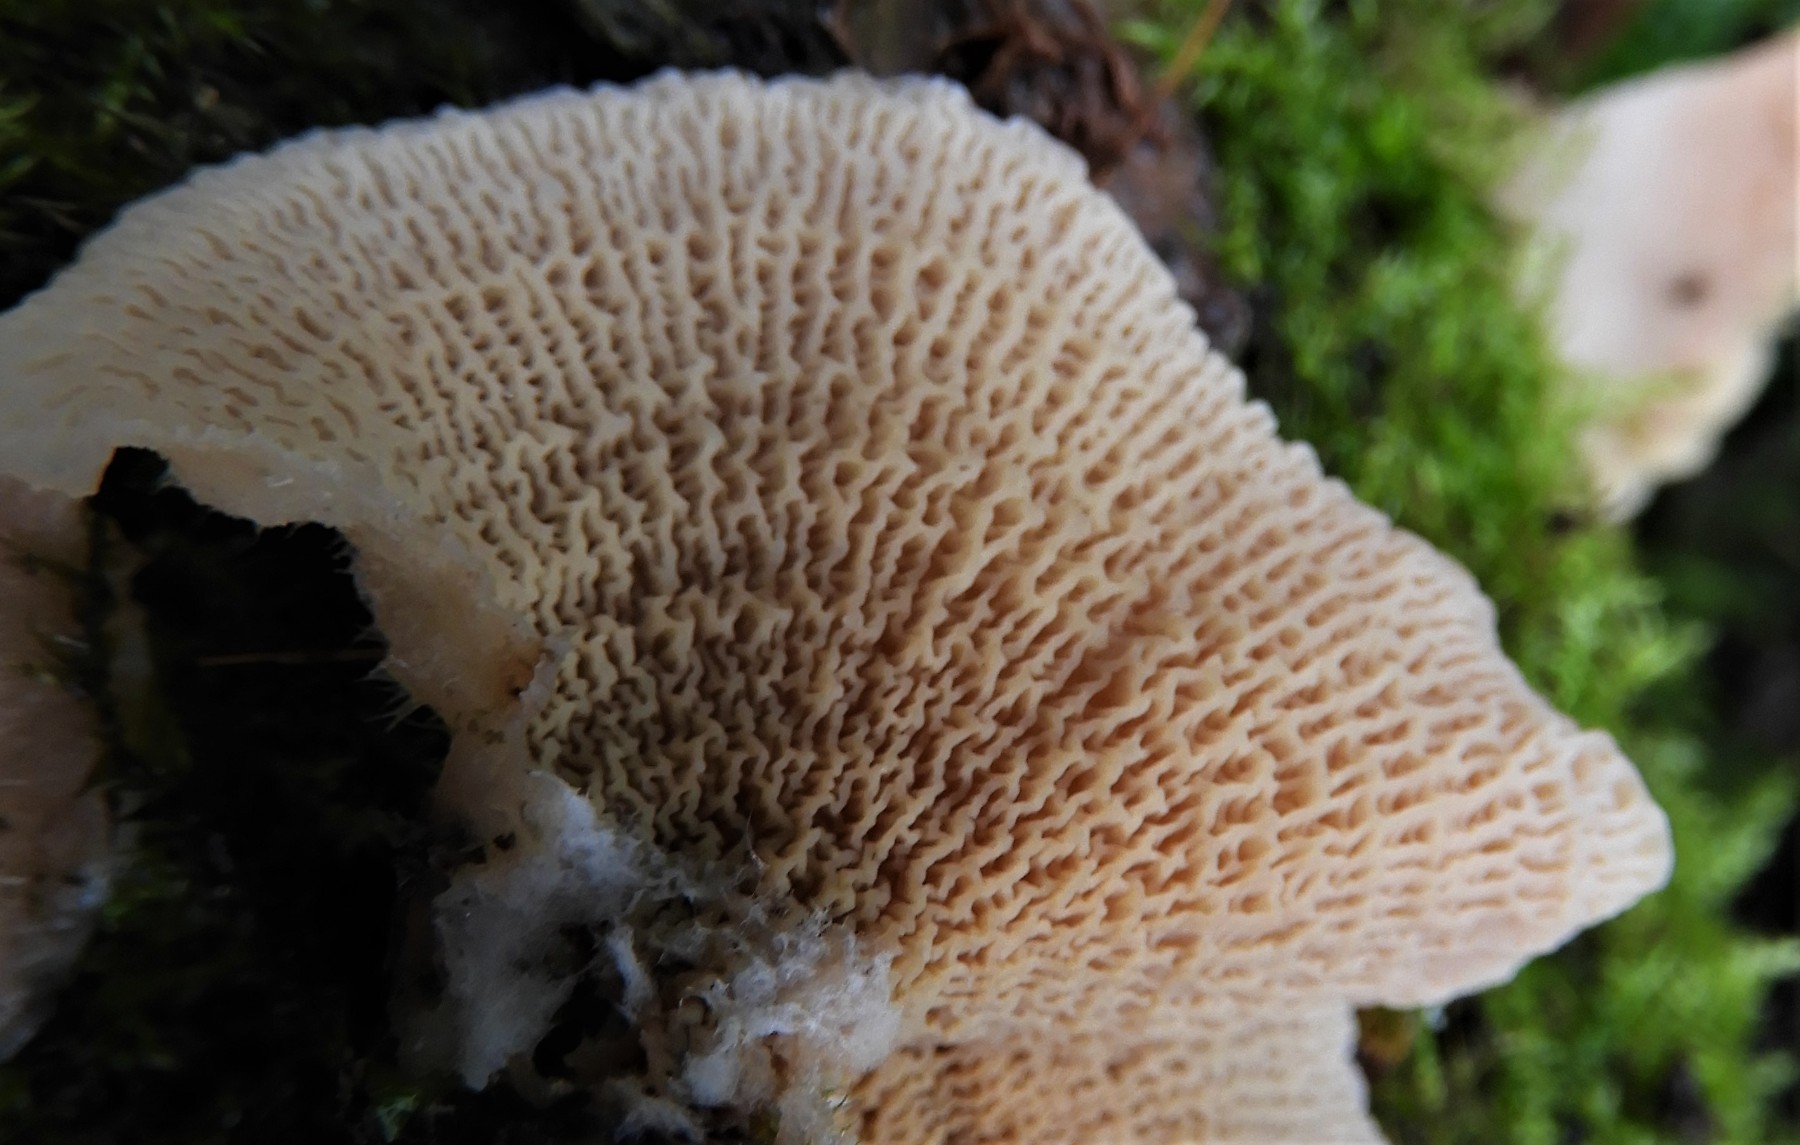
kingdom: Fungi
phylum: Basidiomycota
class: Agaricomycetes
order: Polyporales
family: Meruliaceae
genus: Phlebia
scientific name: Phlebia tremellosa
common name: bævrende åresvamp
